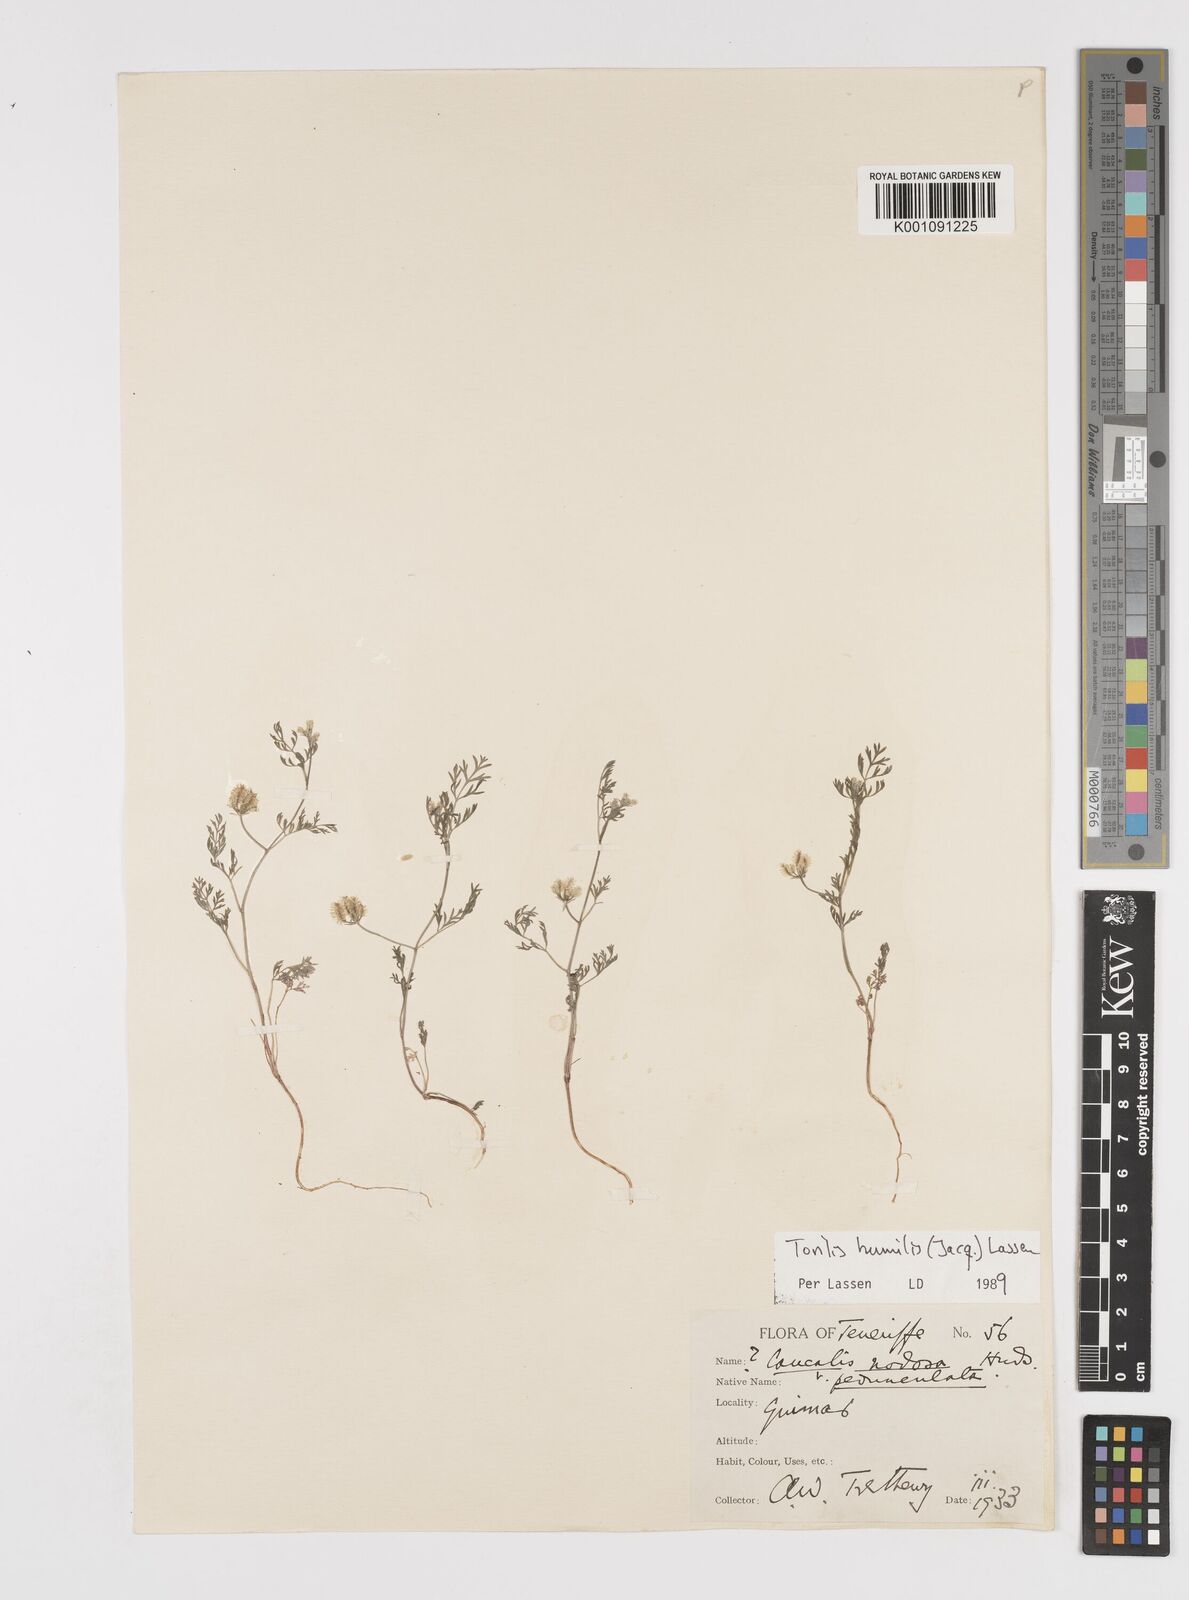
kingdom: Plantae
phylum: Tracheophyta
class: Magnoliopsida
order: Apiales
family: Apiaceae
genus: Torilis
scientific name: Torilis
